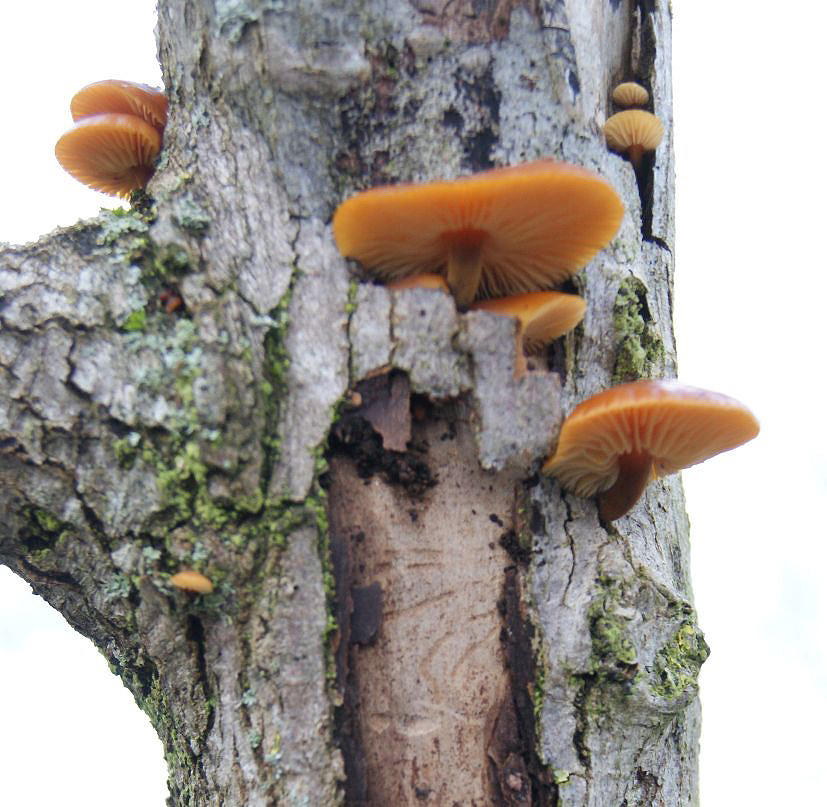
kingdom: Fungi
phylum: Basidiomycota
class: Agaricomycetes
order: Agaricales
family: Physalacriaceae
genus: Flammulina
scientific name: Flammulina populicola
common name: poppel-fløjlsfod
